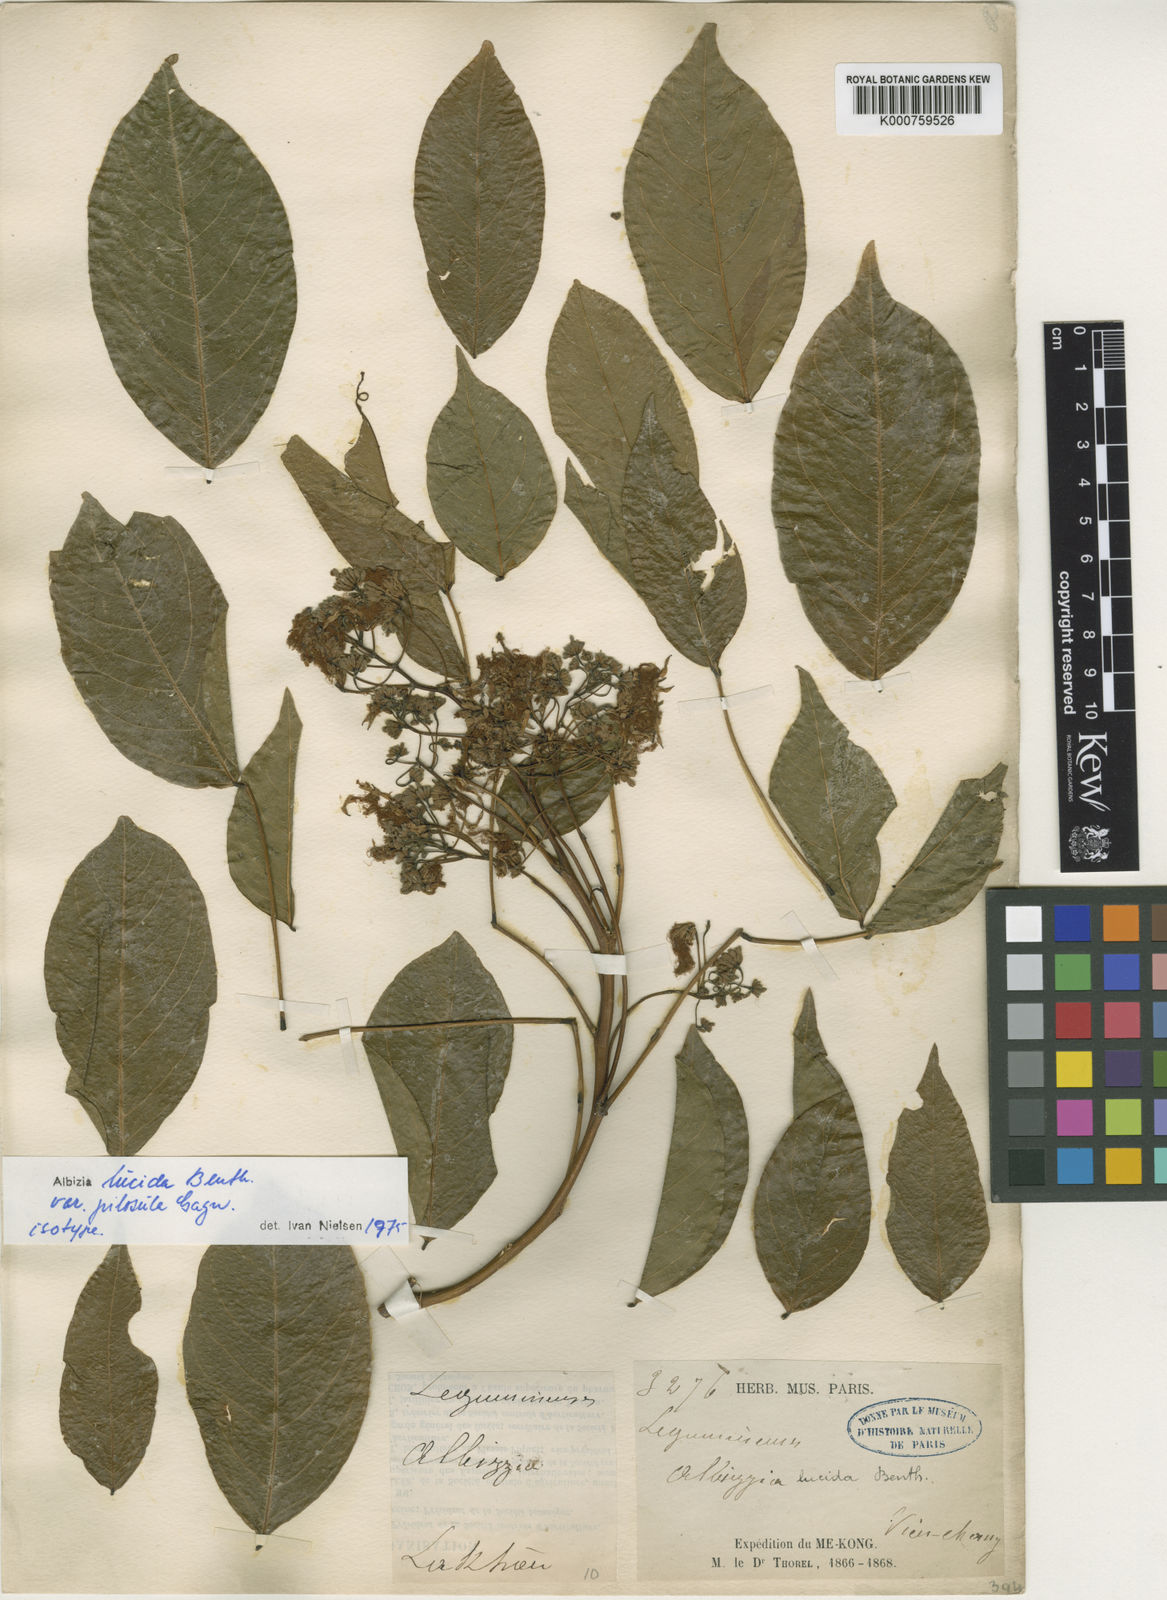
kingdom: Plantae
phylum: Tracheophyta
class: Magnoliopsida
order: Fabales
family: Fabaceae
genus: Albizia
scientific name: Albizia
